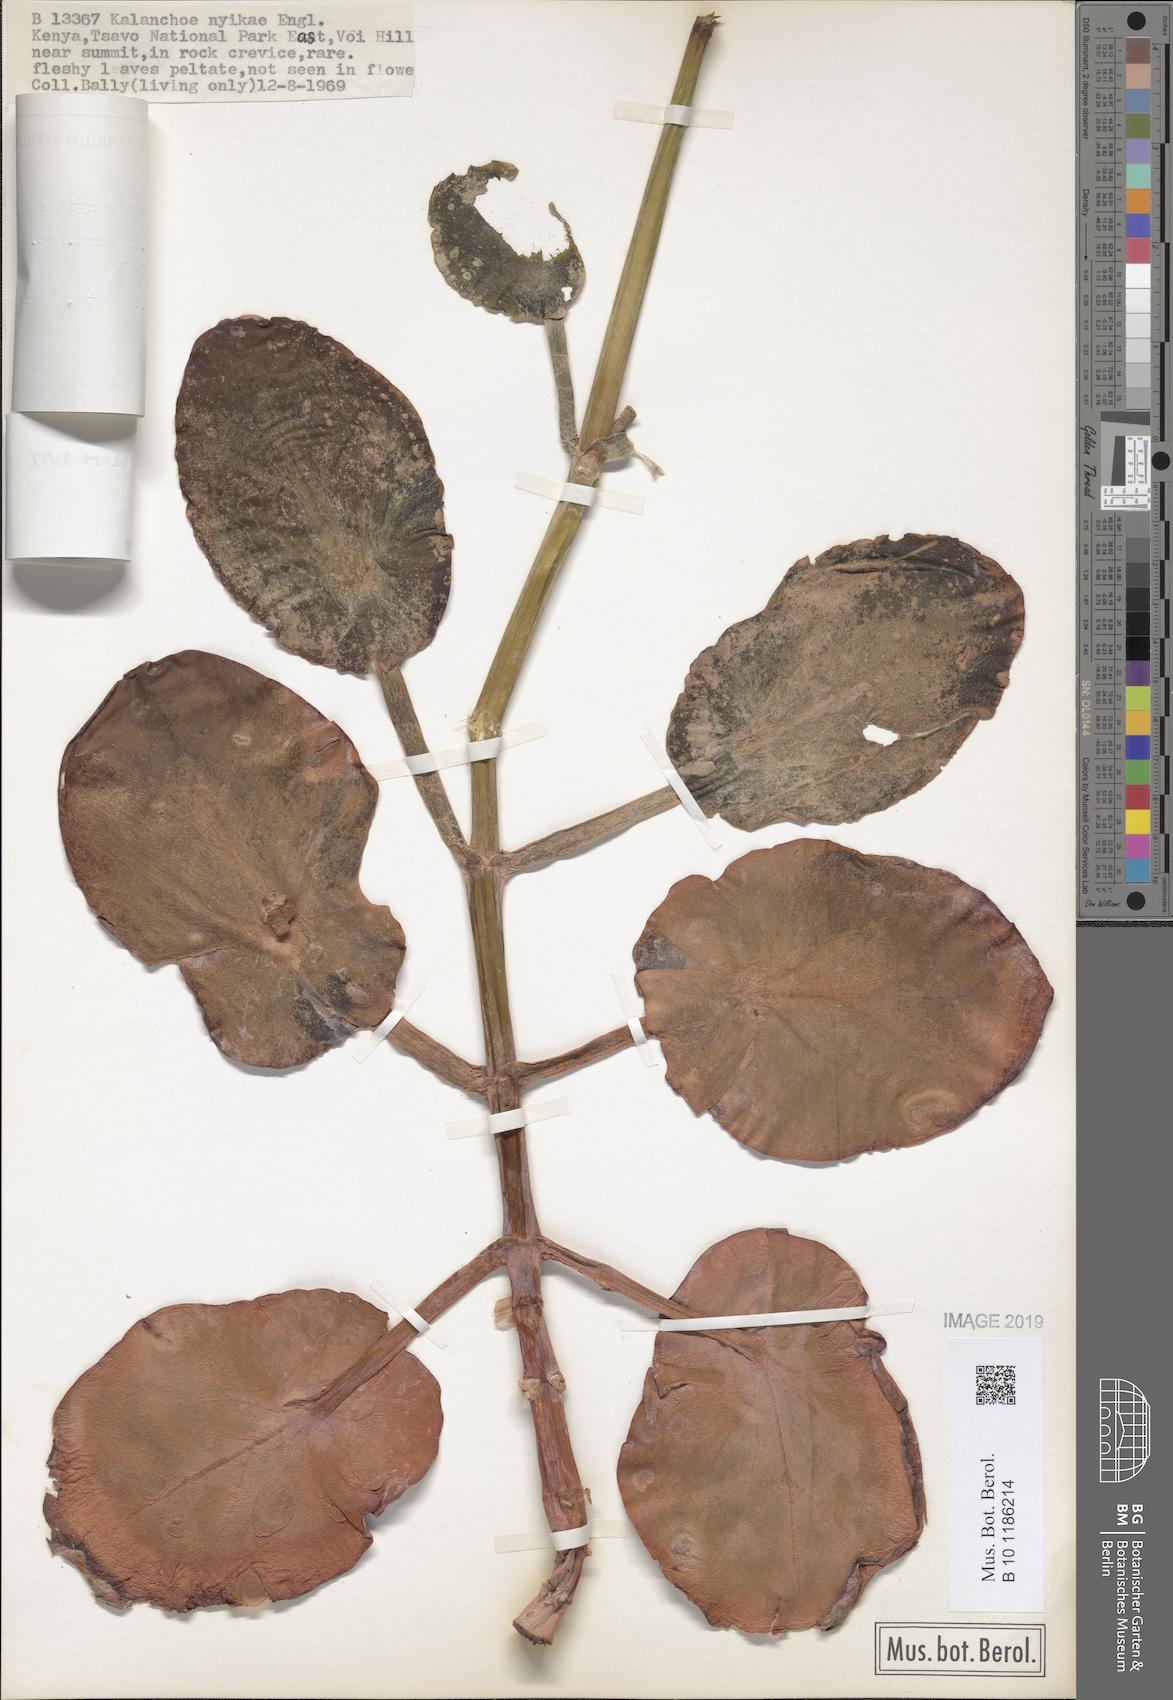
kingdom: Plantae
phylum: Tracheophyta
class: Magnoliopsida
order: Saxifragales
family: Crassulaceae
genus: Kalanchoe
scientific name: Kalanchoe nyikae
